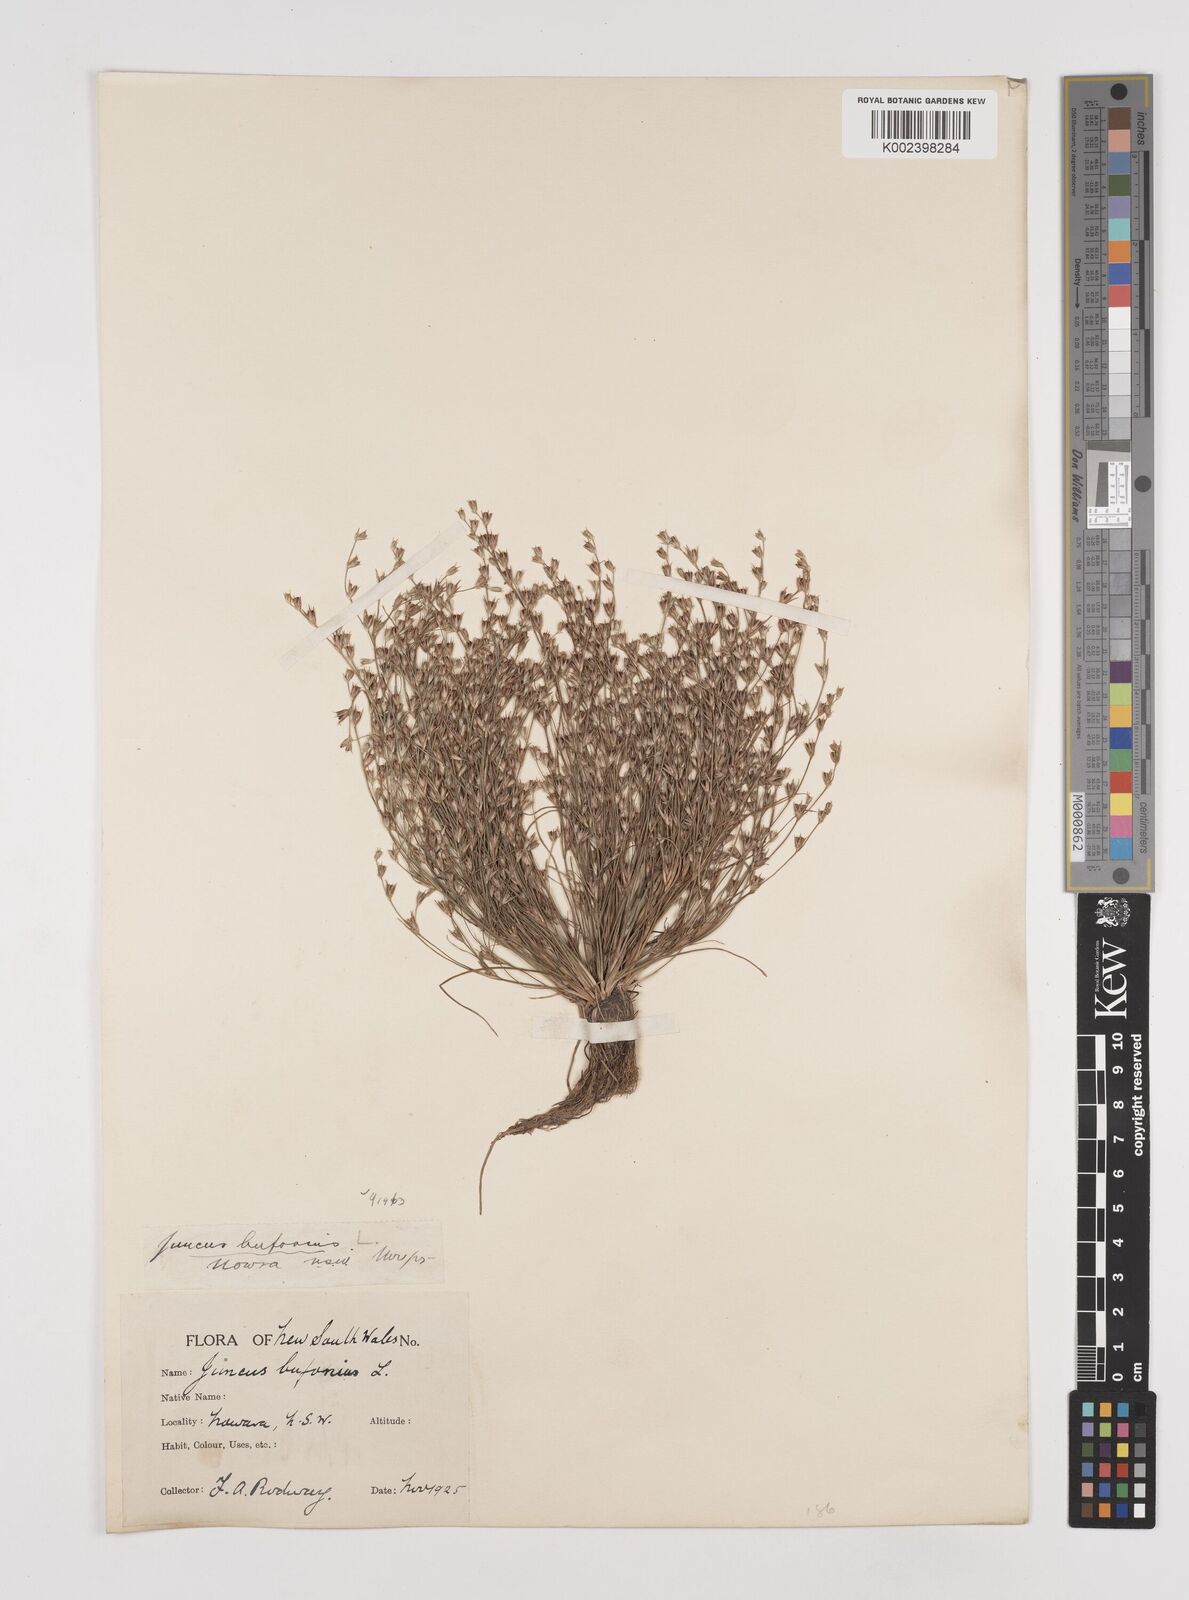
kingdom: Plantae
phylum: Tracheophyta
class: Liliopsida
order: Poales
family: Juncaceae
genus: Juncus
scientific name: Juncus ranarius
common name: Frog rush
